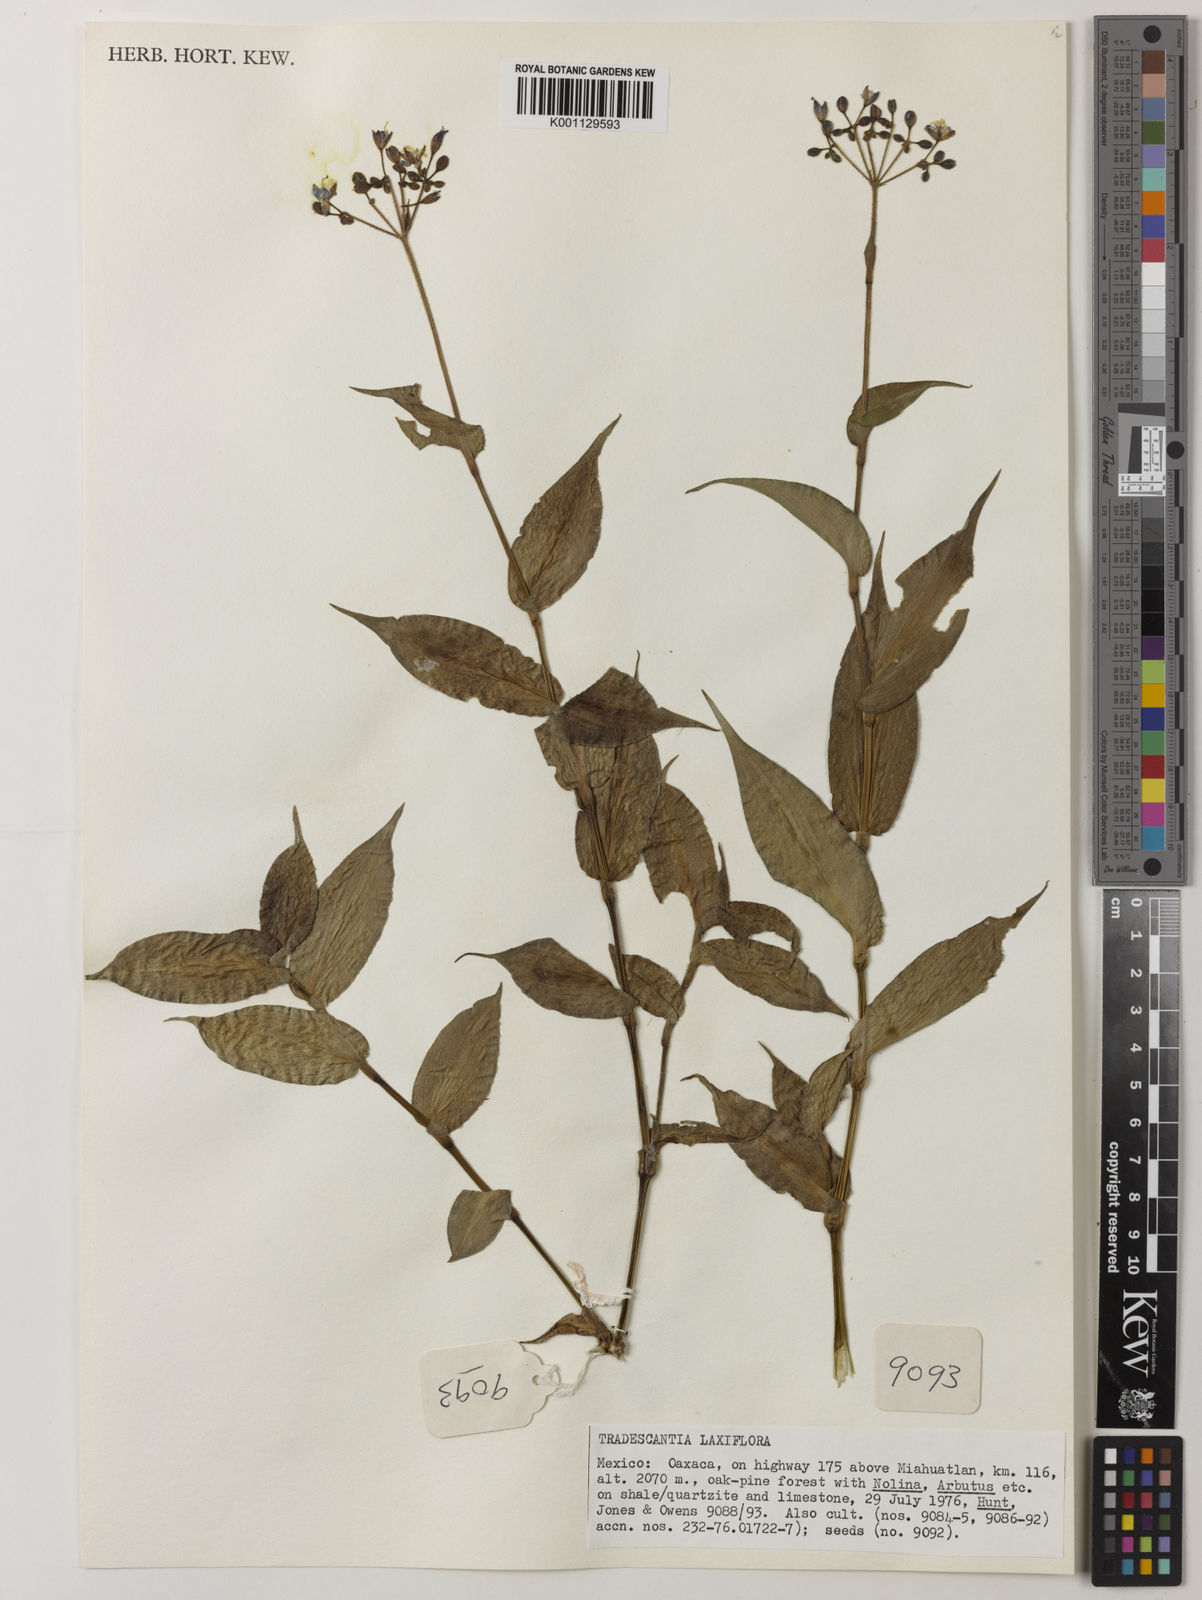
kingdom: Plantae
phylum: Tracheophyta
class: Liliopsida
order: Commelinales
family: Commelinaceae
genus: Thyrsanthemum
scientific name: Thyrsanthemum
